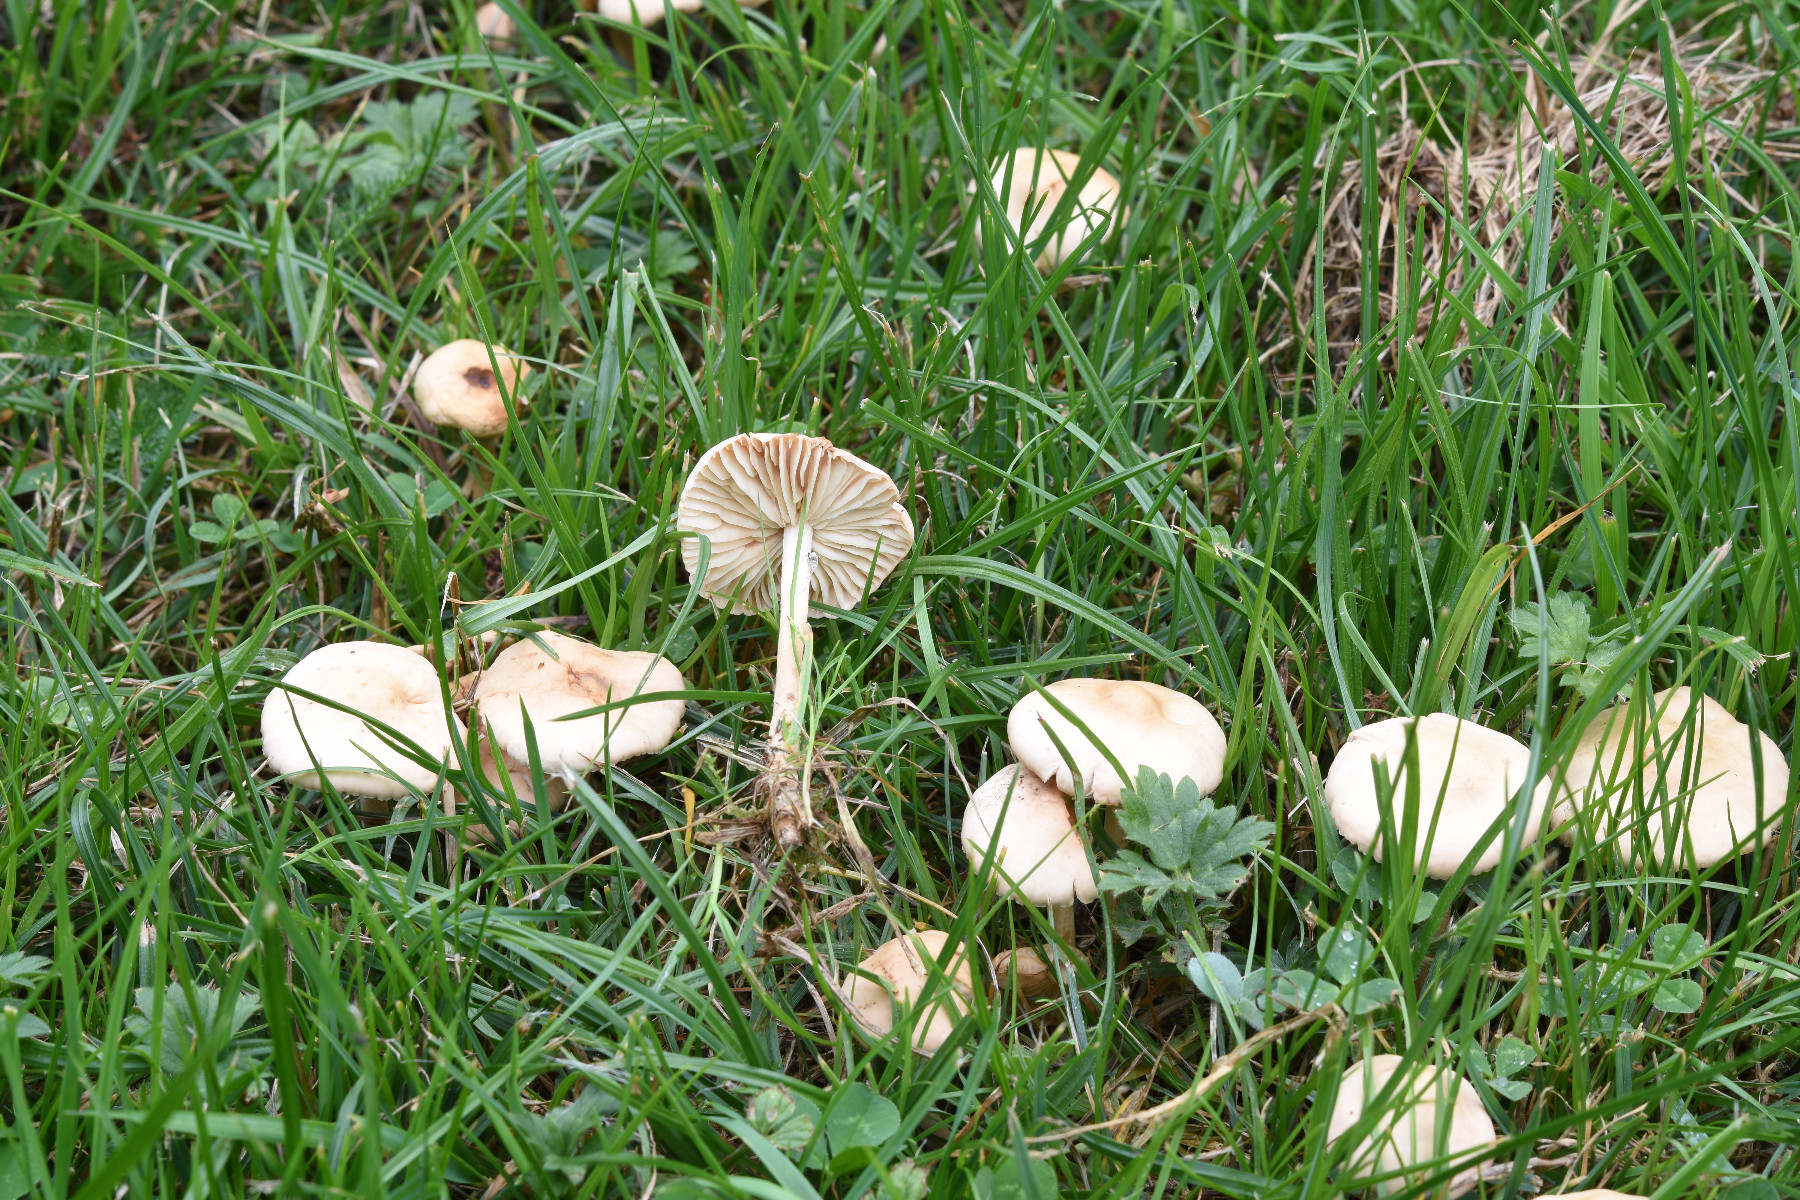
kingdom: Fungi
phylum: Basidiomycota
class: Agaricomycetes
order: Agaricales
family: Marasmiaceae
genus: Marasmius
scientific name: Marasmius oreades
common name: elledans-bruskhat
